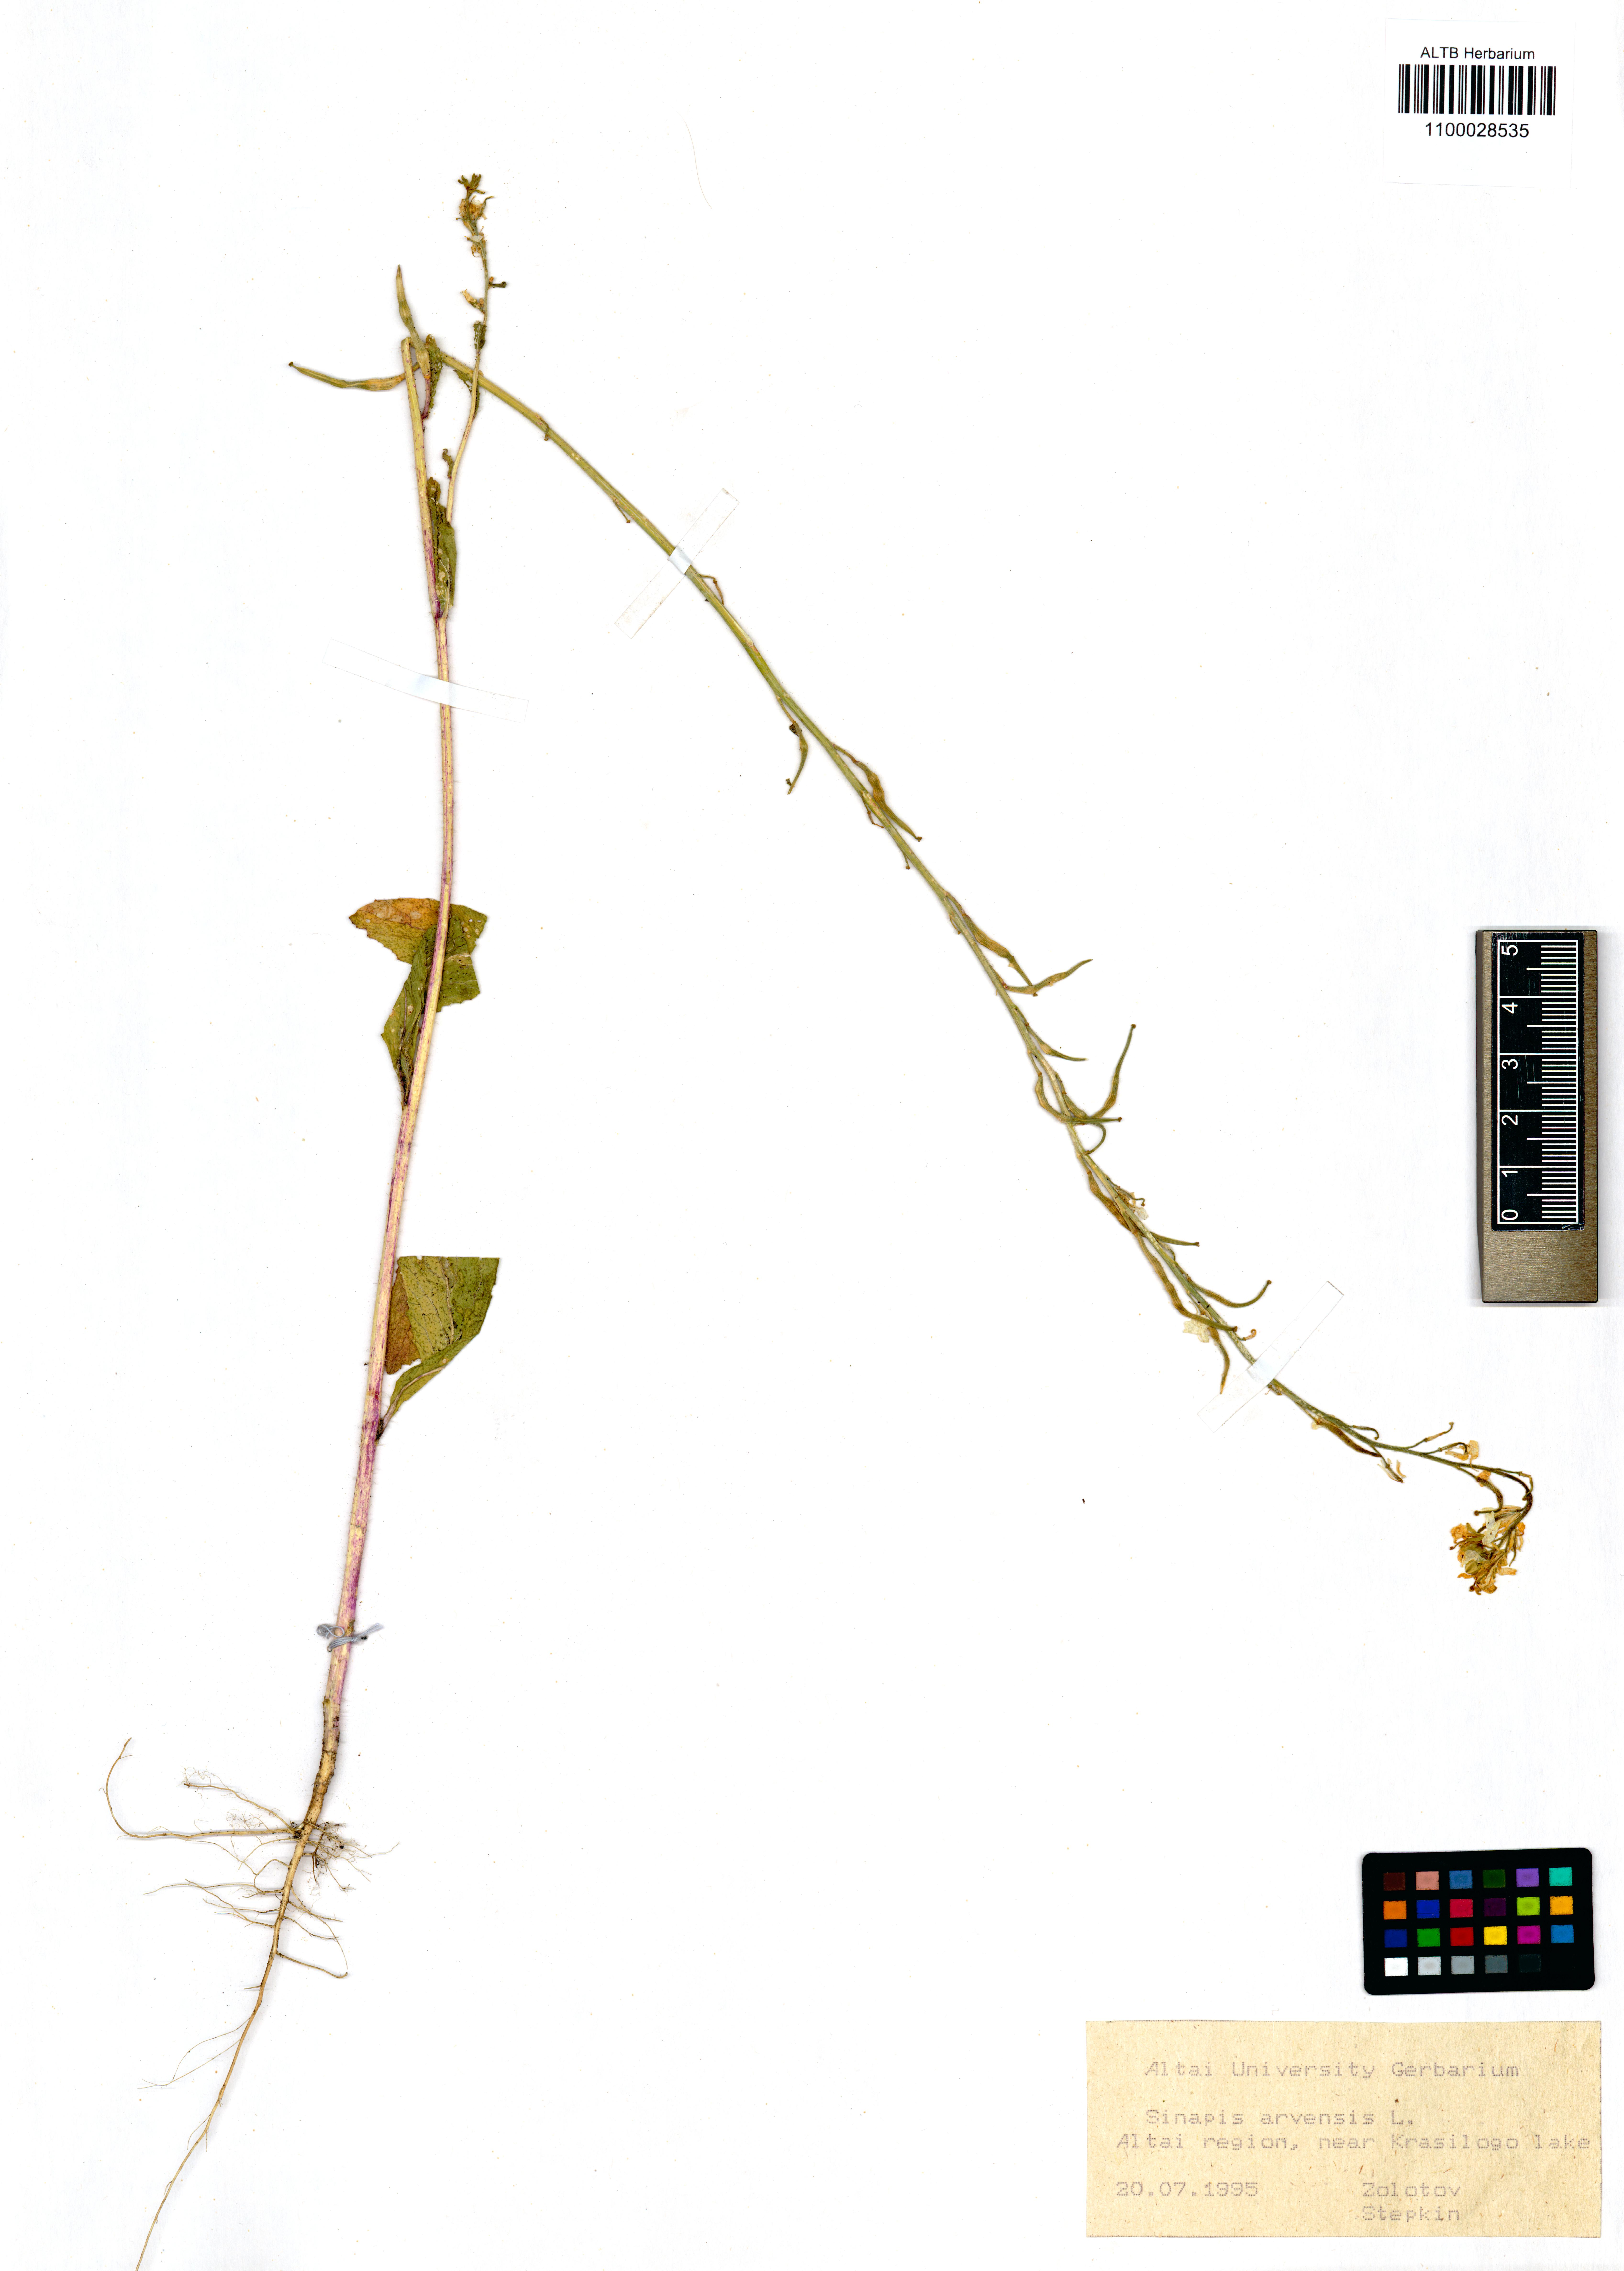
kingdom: Plantae
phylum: Tracheophyta
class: Magnoliopsida
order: Brassicales
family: Brassicaceae
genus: Sinapis
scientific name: Sinapis arvensis
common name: Charlock
